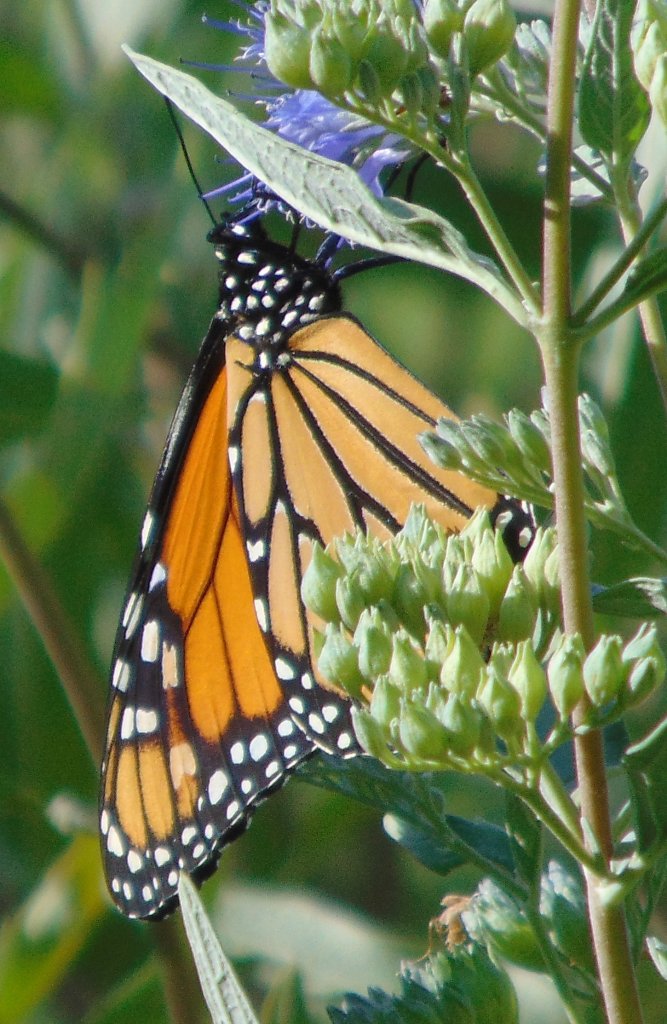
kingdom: Animalia
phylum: Arthropoda
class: Insecta
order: Lepidoptera
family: Nymphalidae
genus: Danaus
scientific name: Danaus plexippus
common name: Monarch
